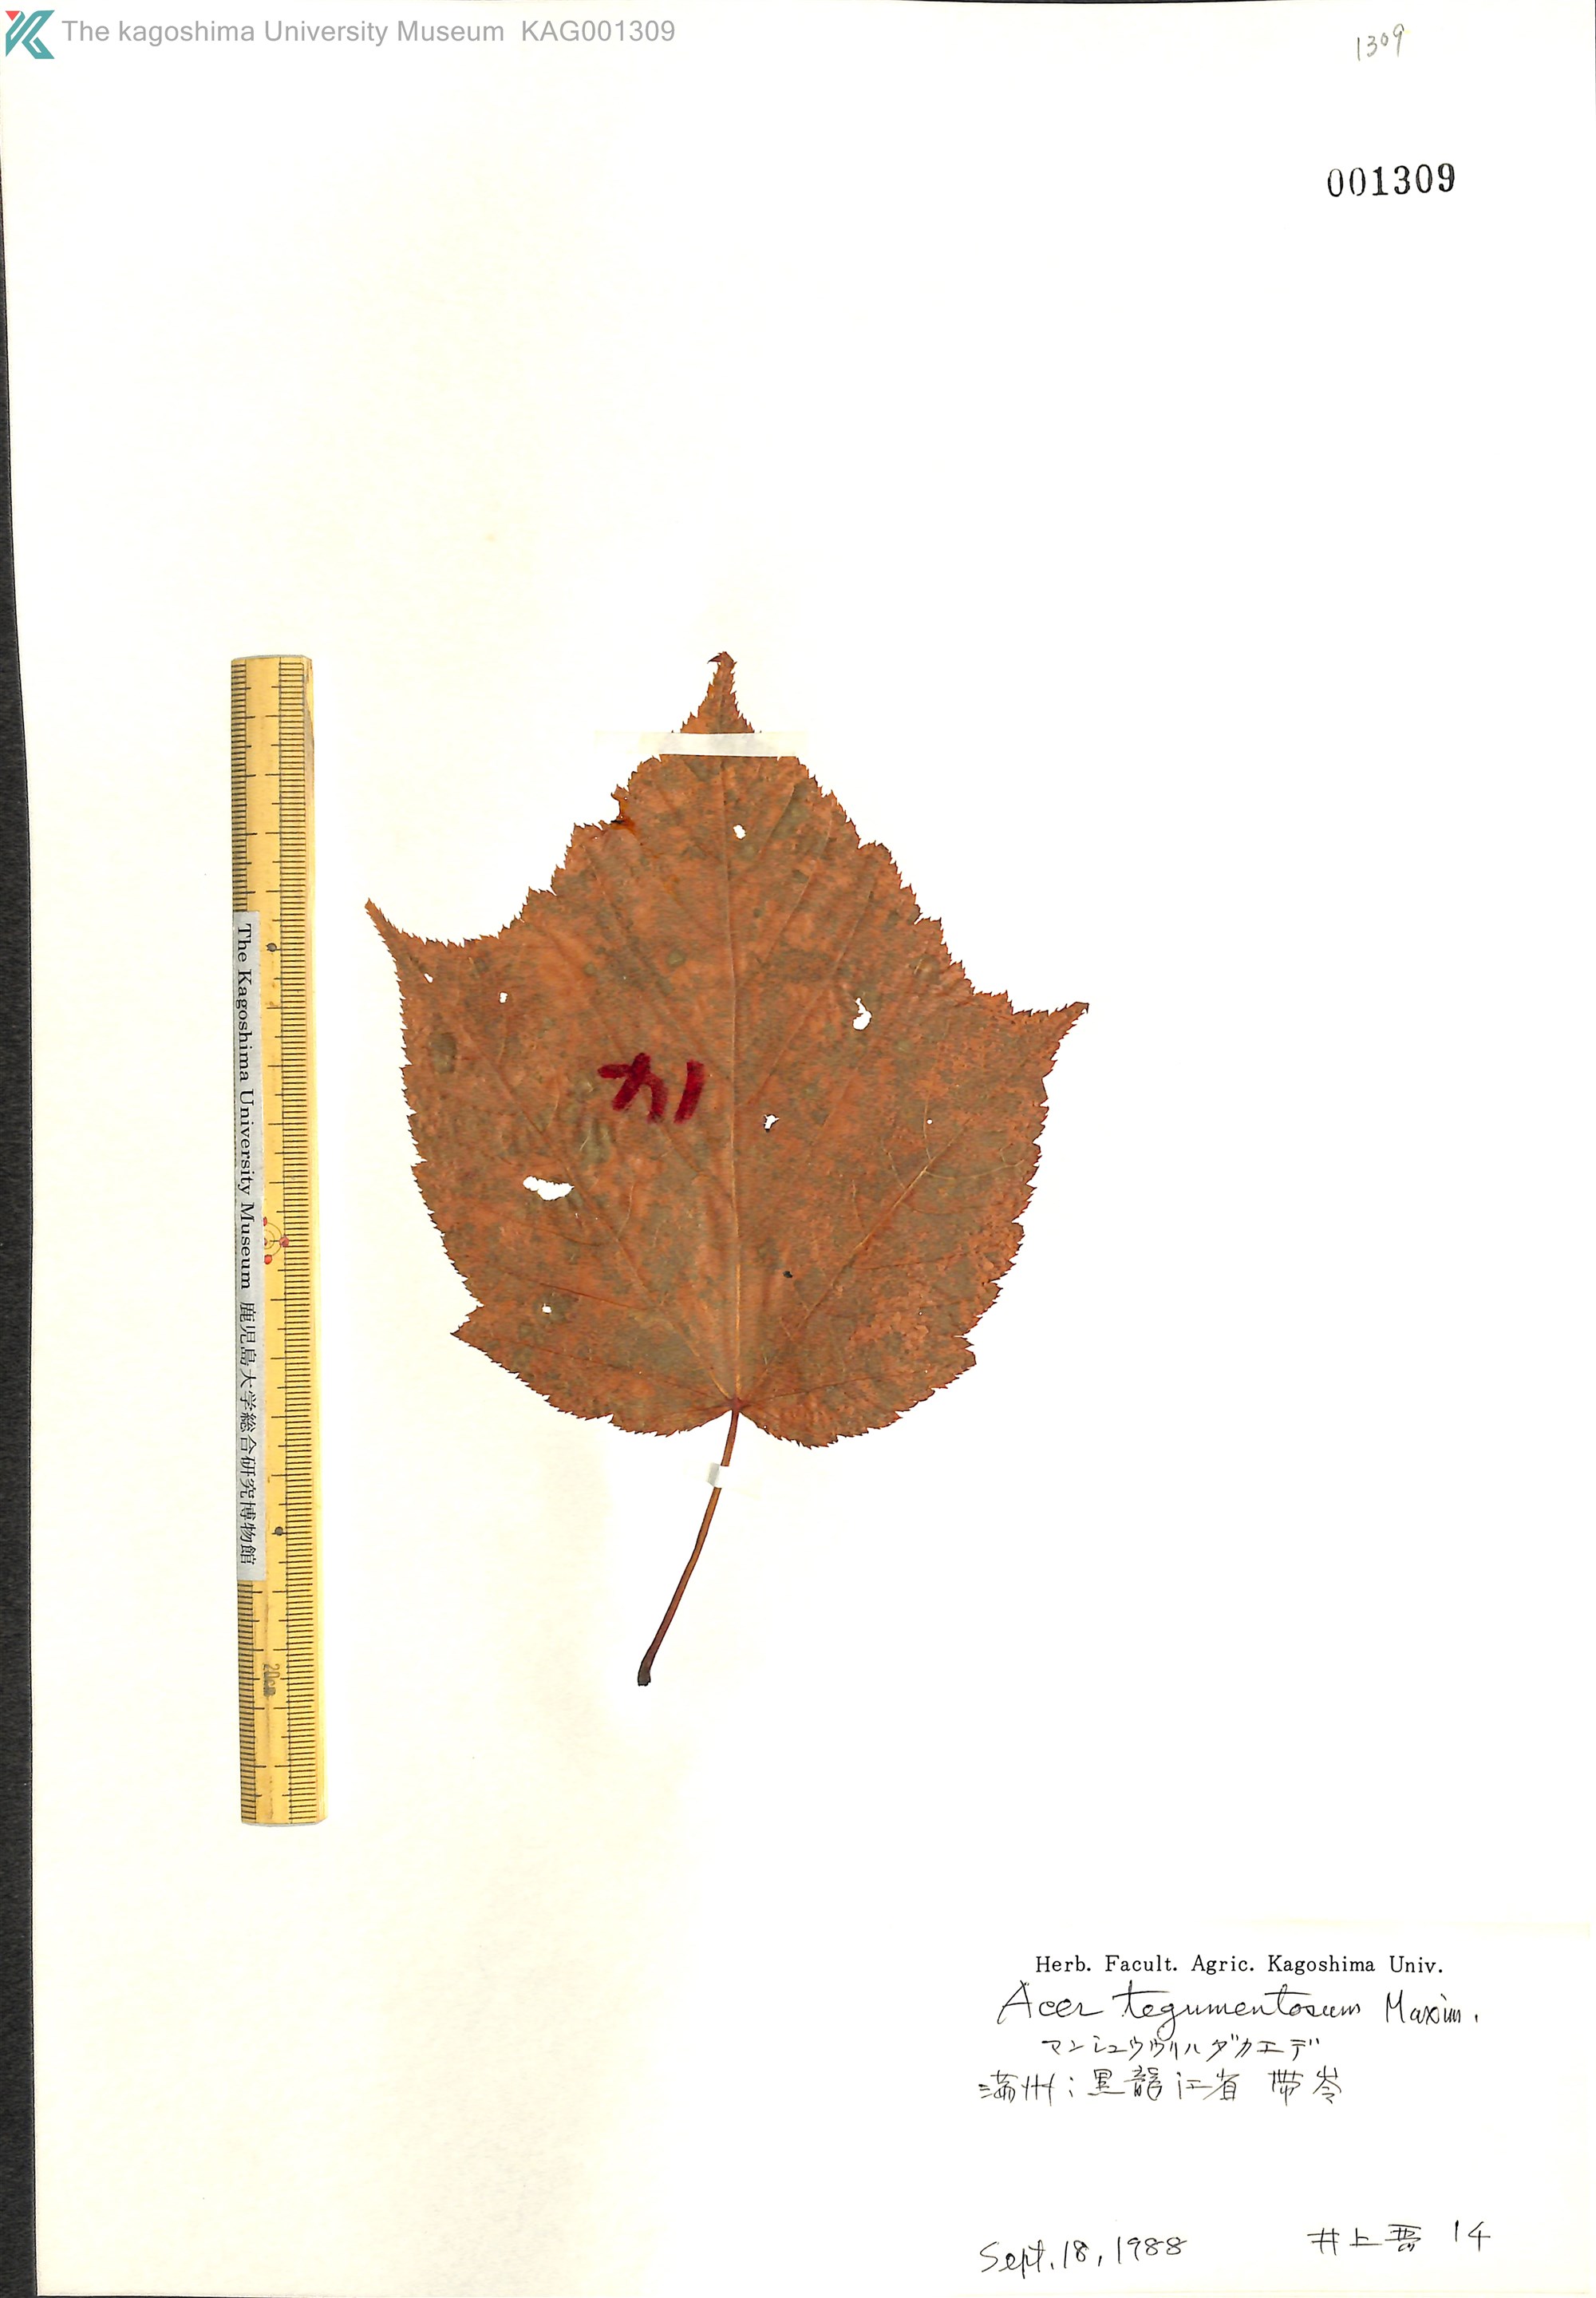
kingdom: Plantae
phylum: Tracheophyta
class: Magnoliopsida
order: Sapindales
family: Sapindaceae
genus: Acer
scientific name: Acer tegmentosum
